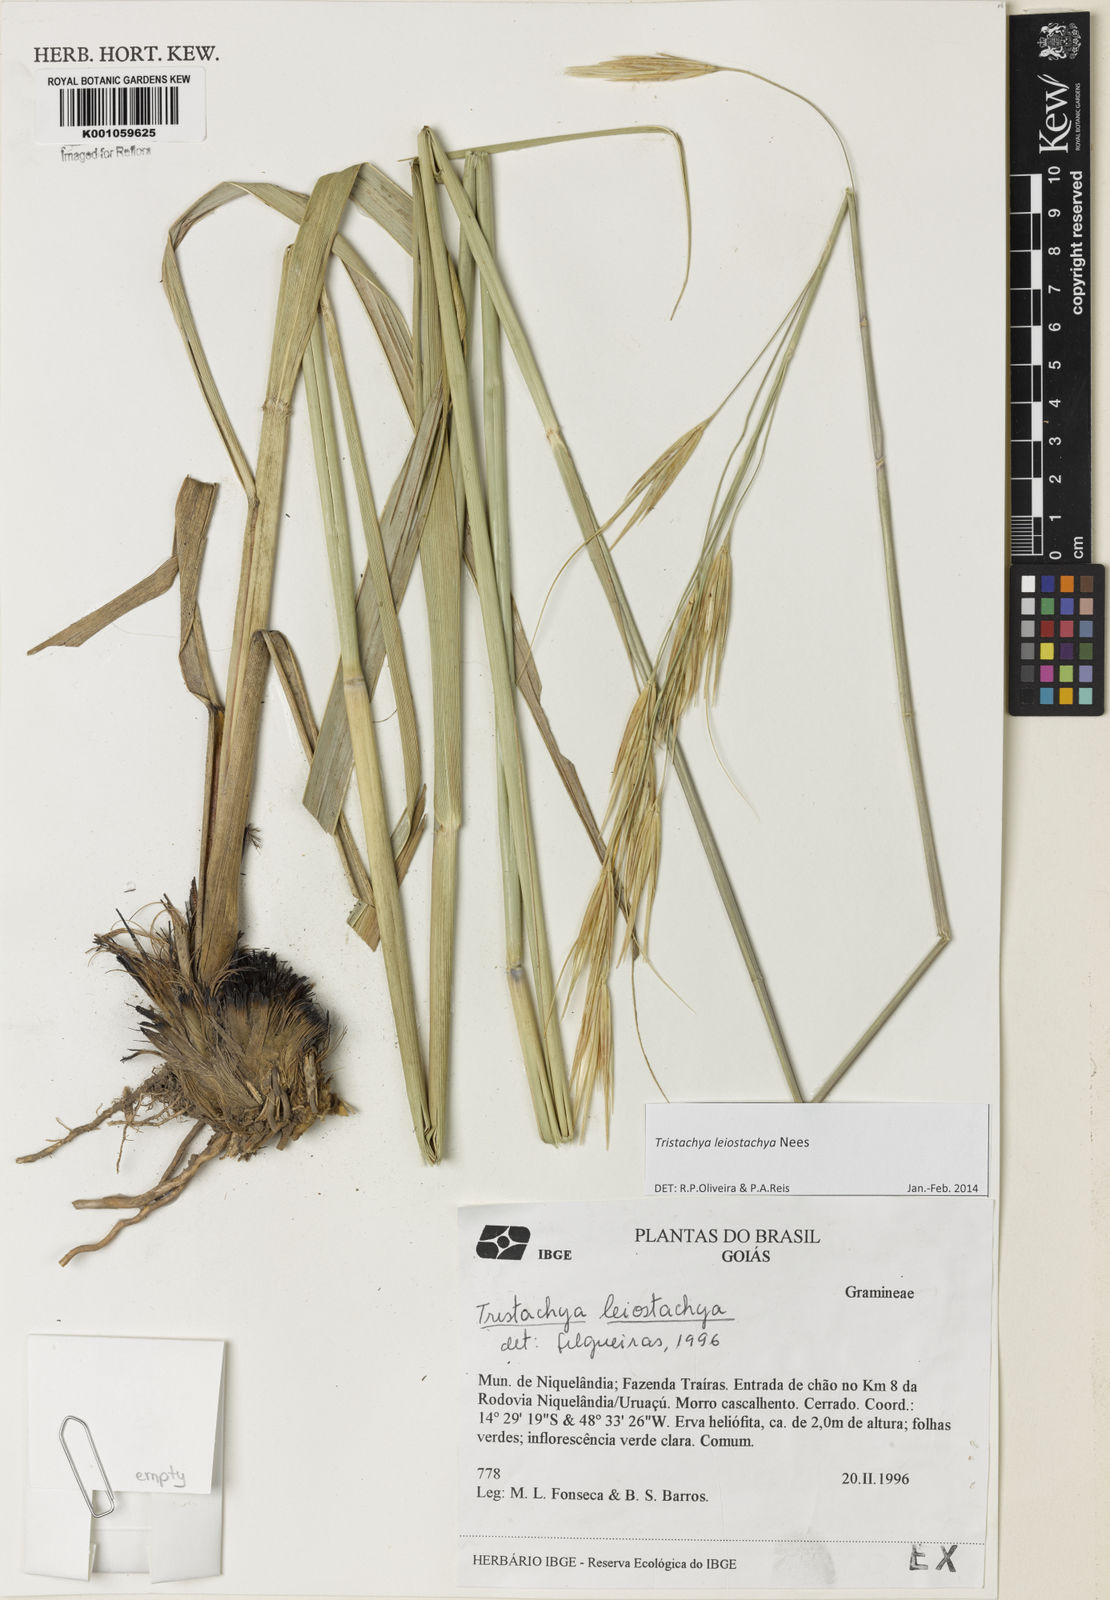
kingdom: Plantae
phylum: Tracheophyta
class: Liliopsida
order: Poales
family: Poaceae
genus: Tristachya
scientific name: Tristachya leiostachya
